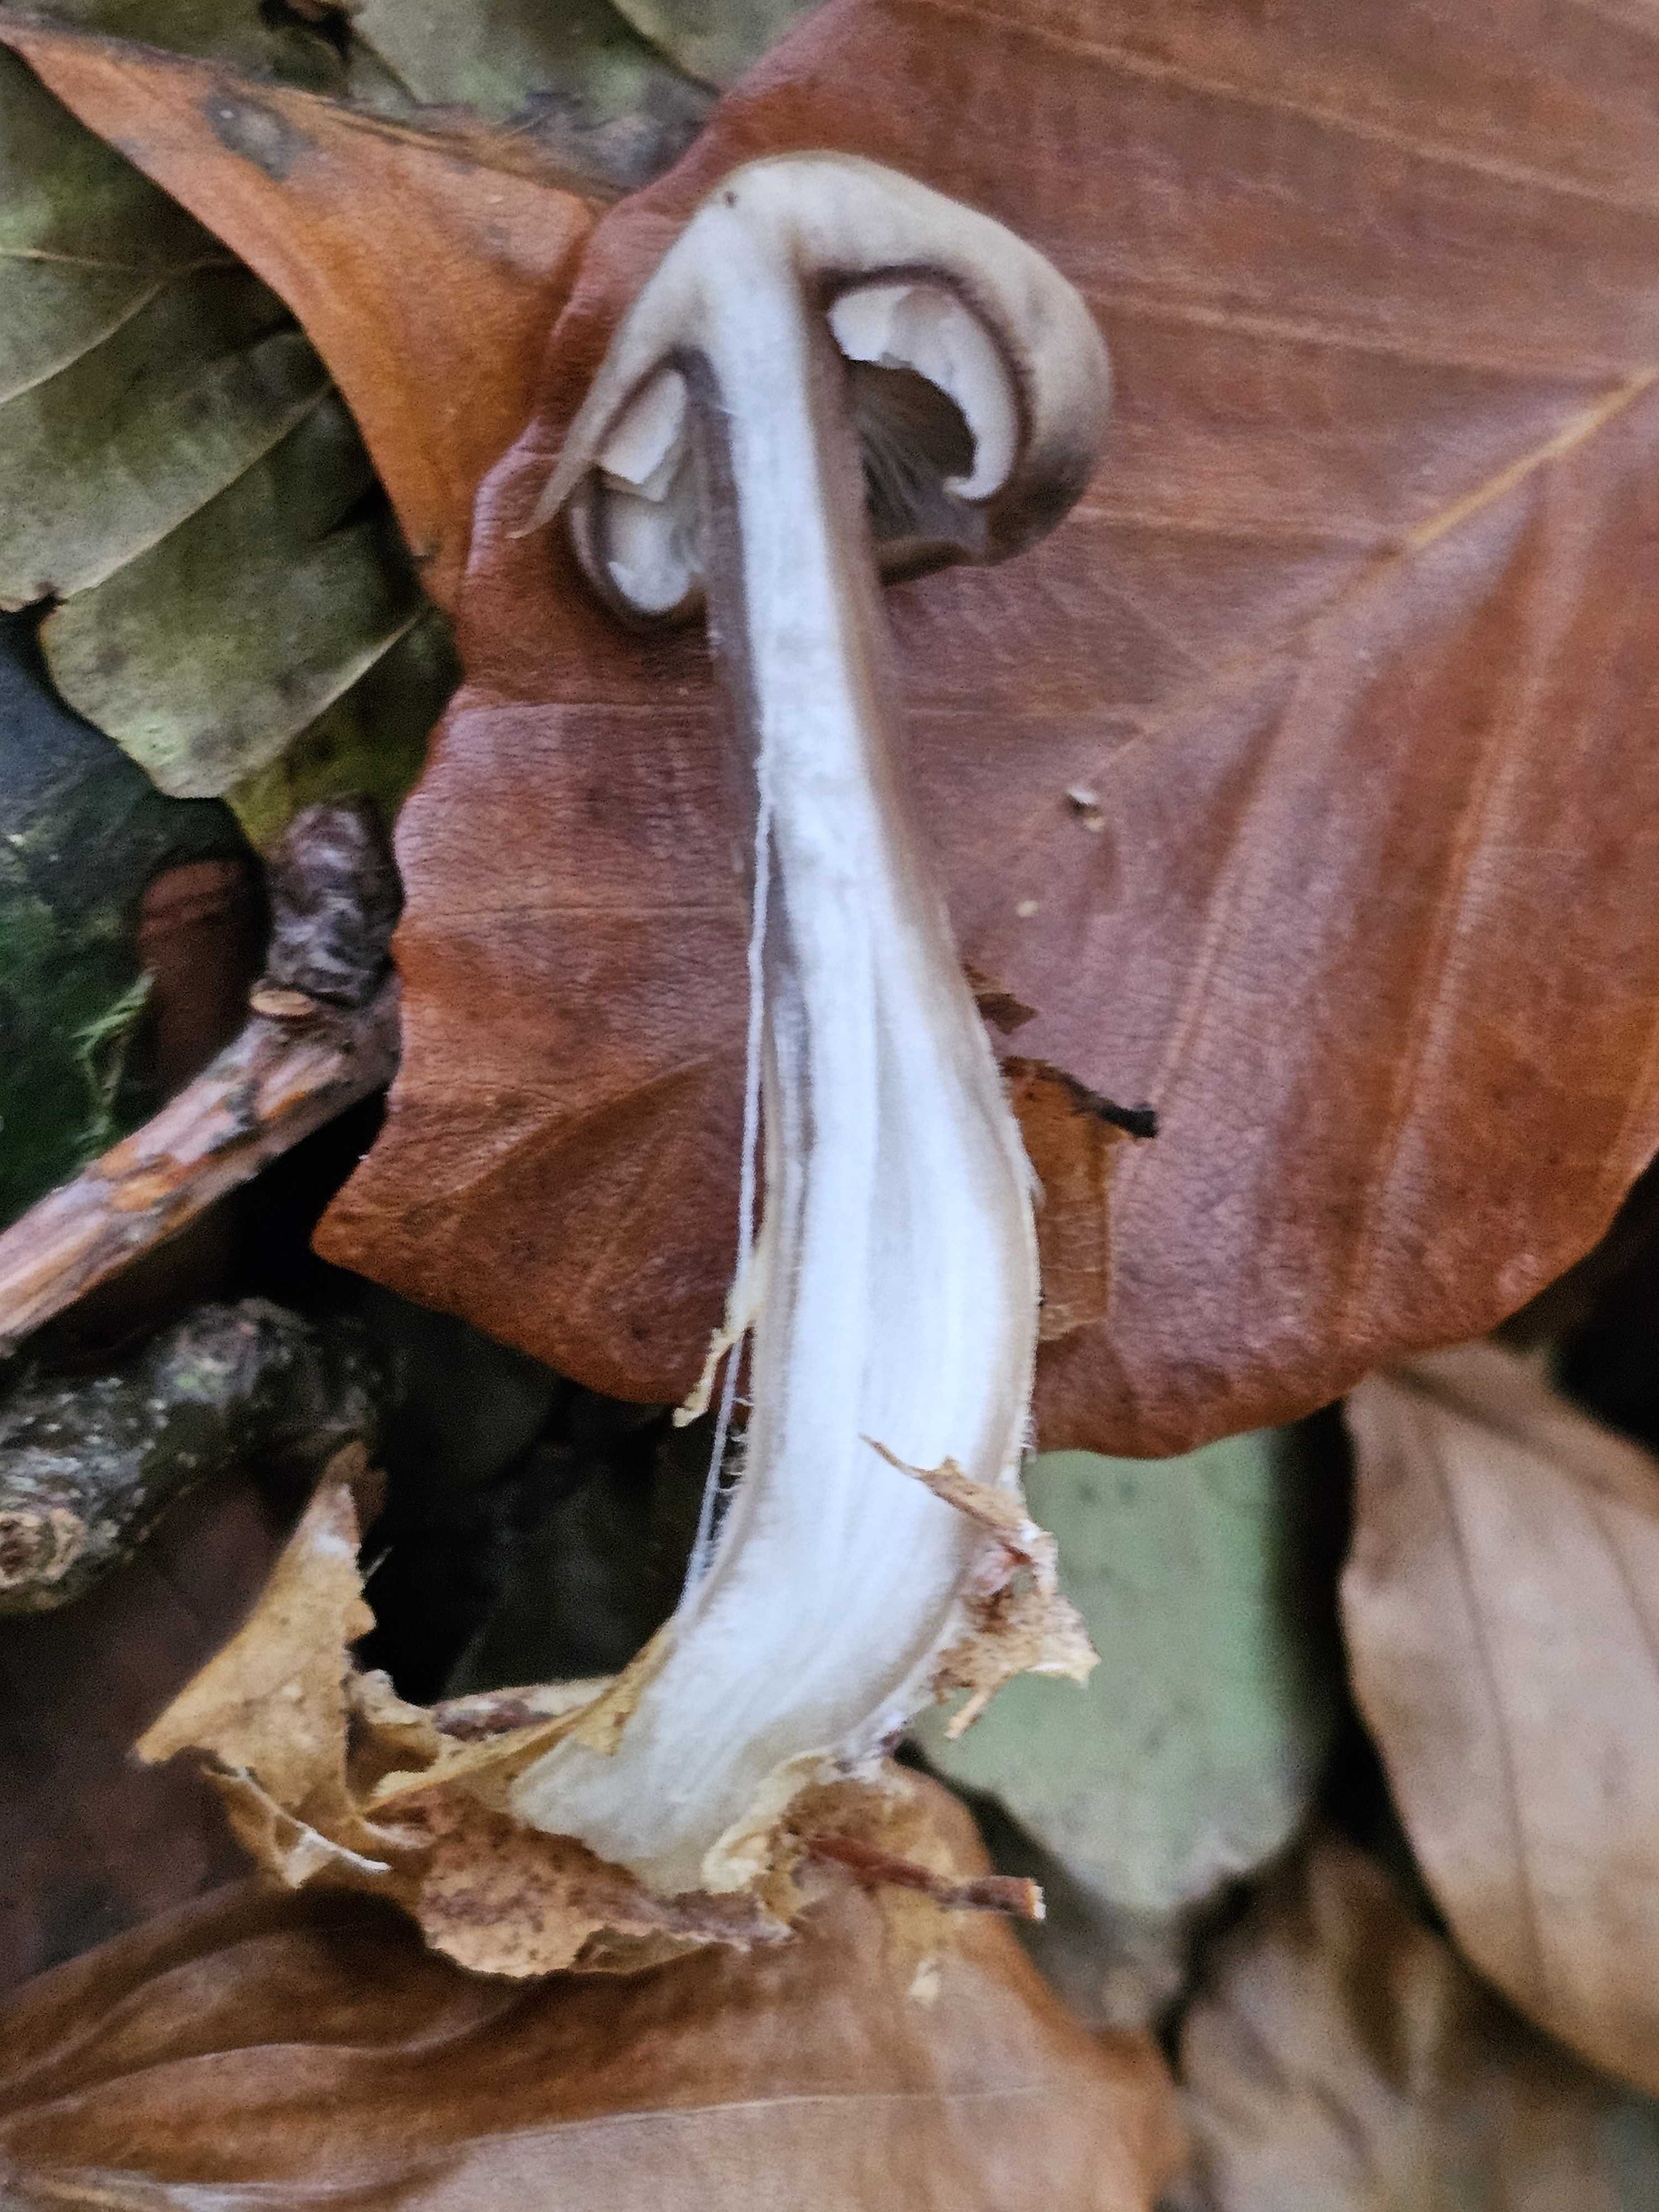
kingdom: Fungi
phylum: Basidiomycota
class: Agaricomycetes
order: Agaricales
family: Omphalotaceae
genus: Rhodocollybia
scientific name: Rhodocollybia asema
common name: horngrå fladhat
